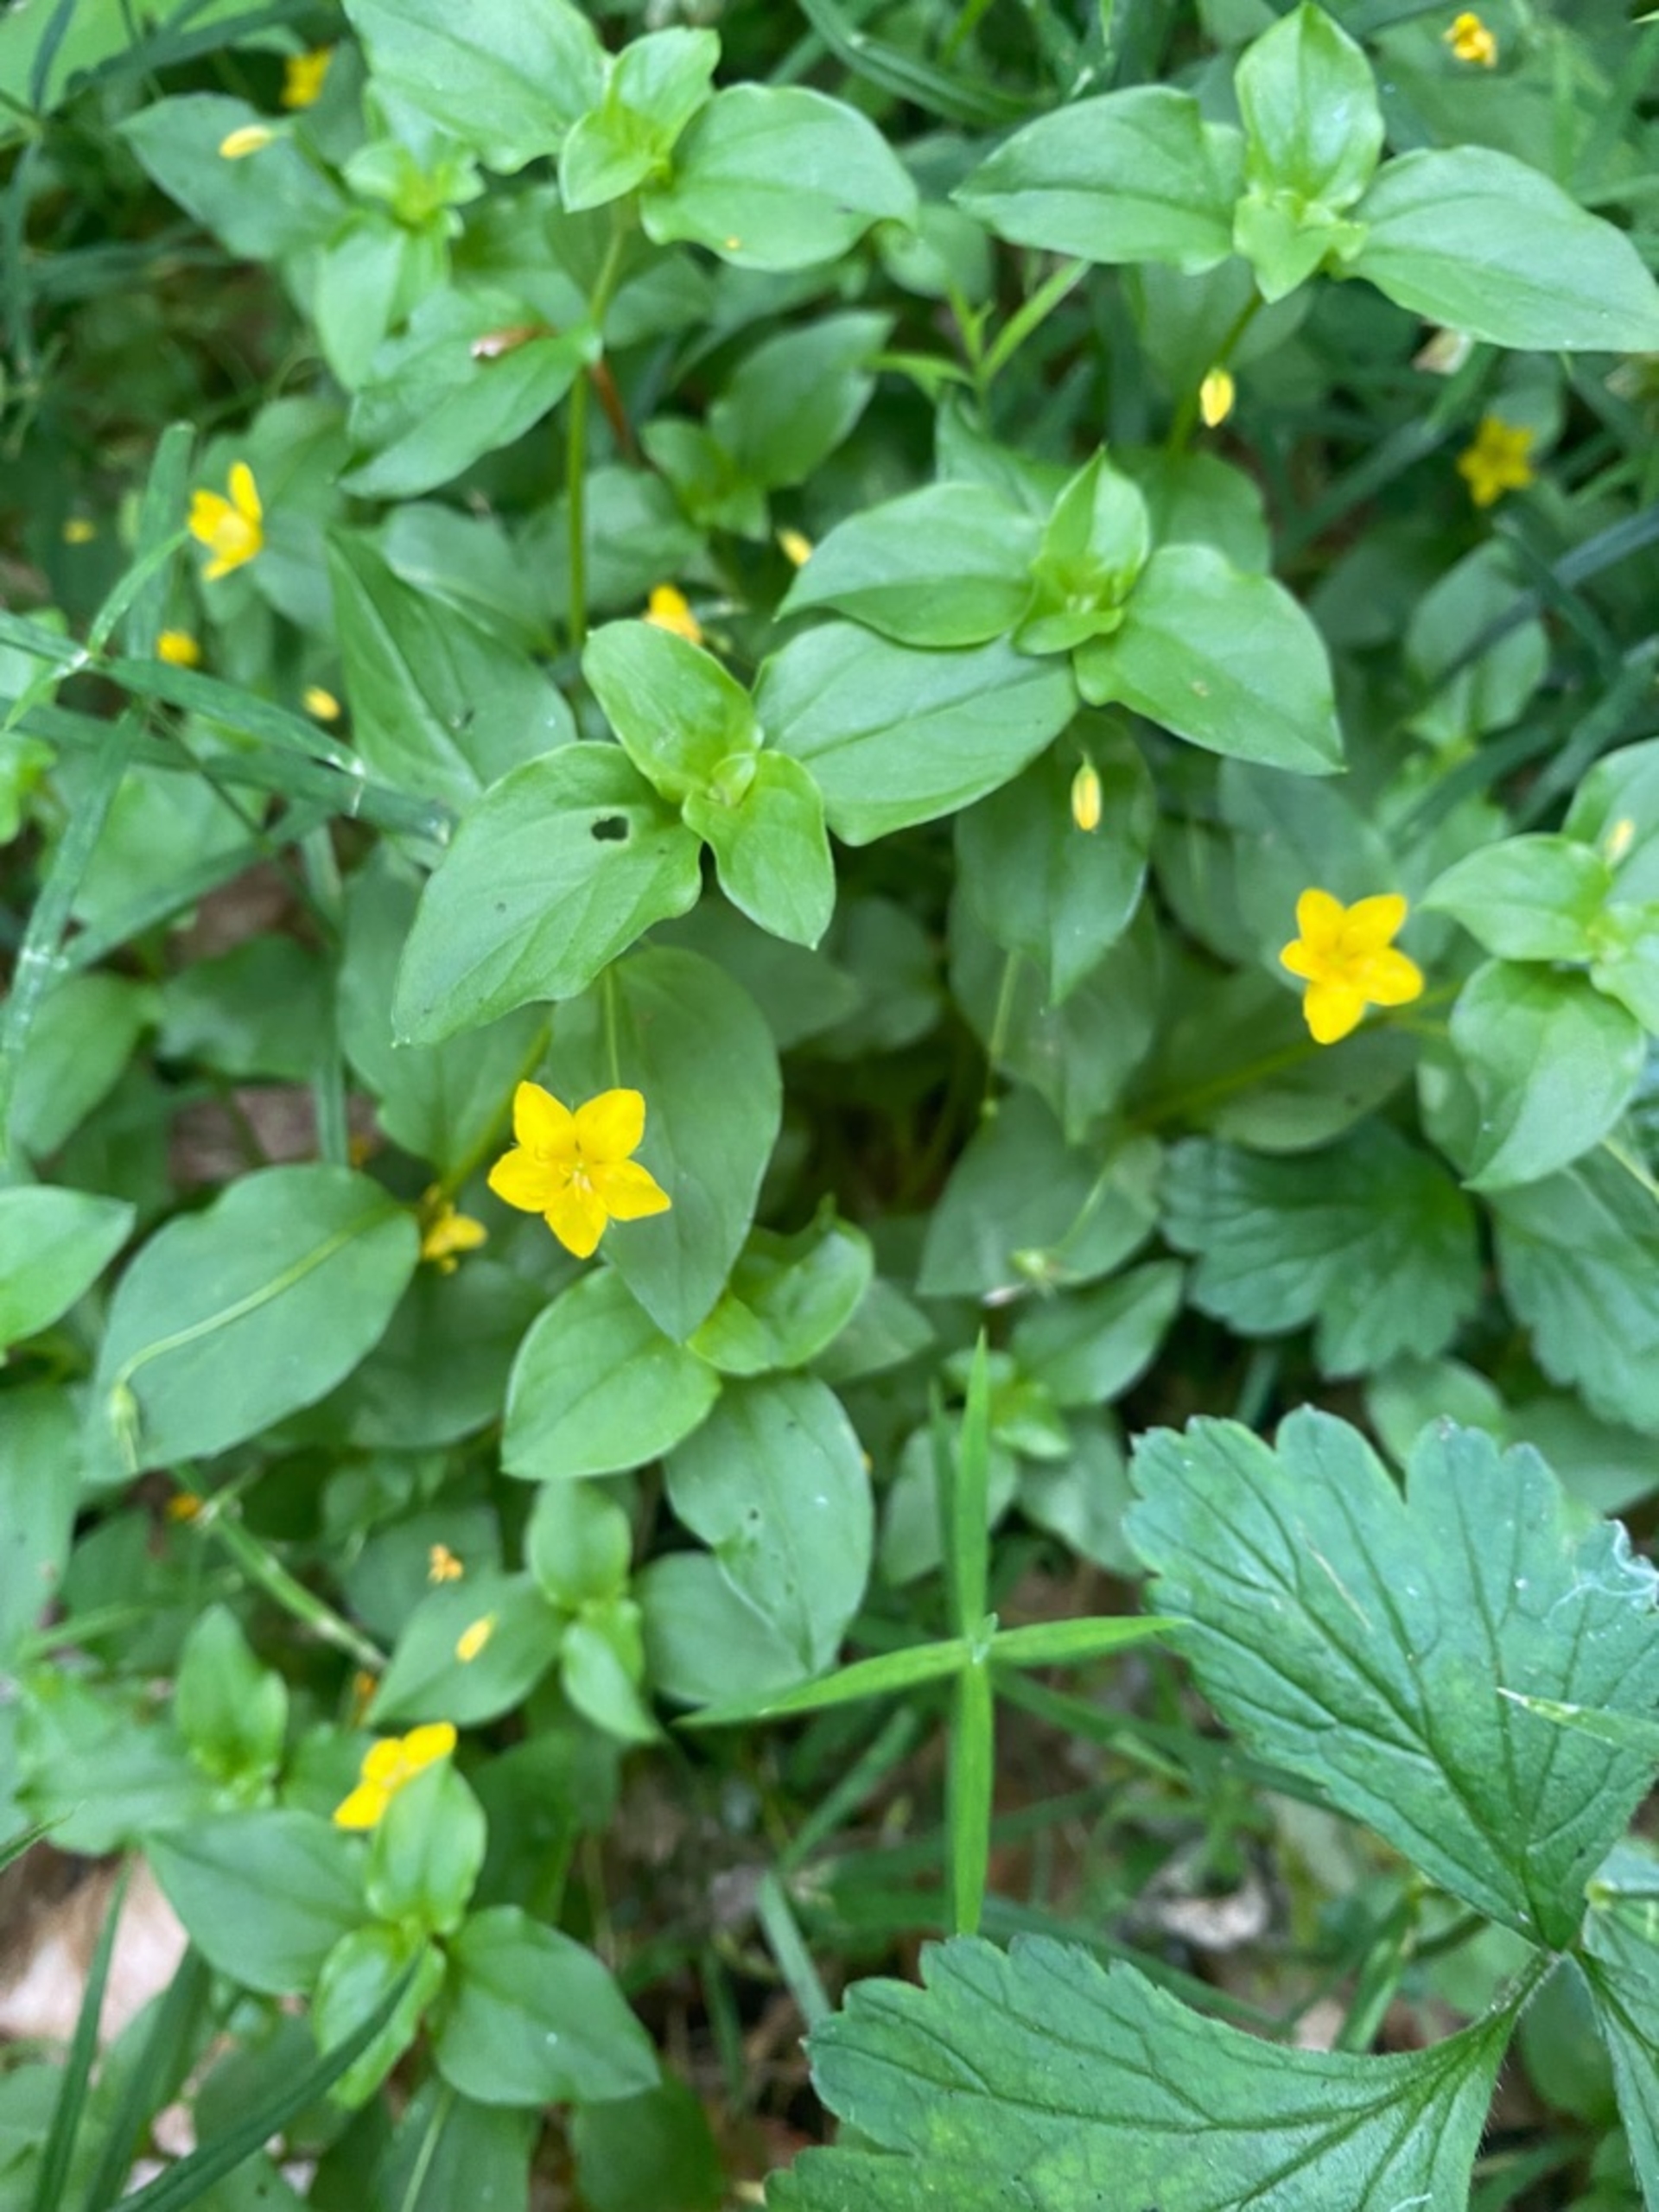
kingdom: Plantae
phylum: Tracheophyta
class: Magnoliopsida
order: Ericales
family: Primulaceae
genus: Lysimachia
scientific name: Lysimachia nemorum
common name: Lund-fredløs
